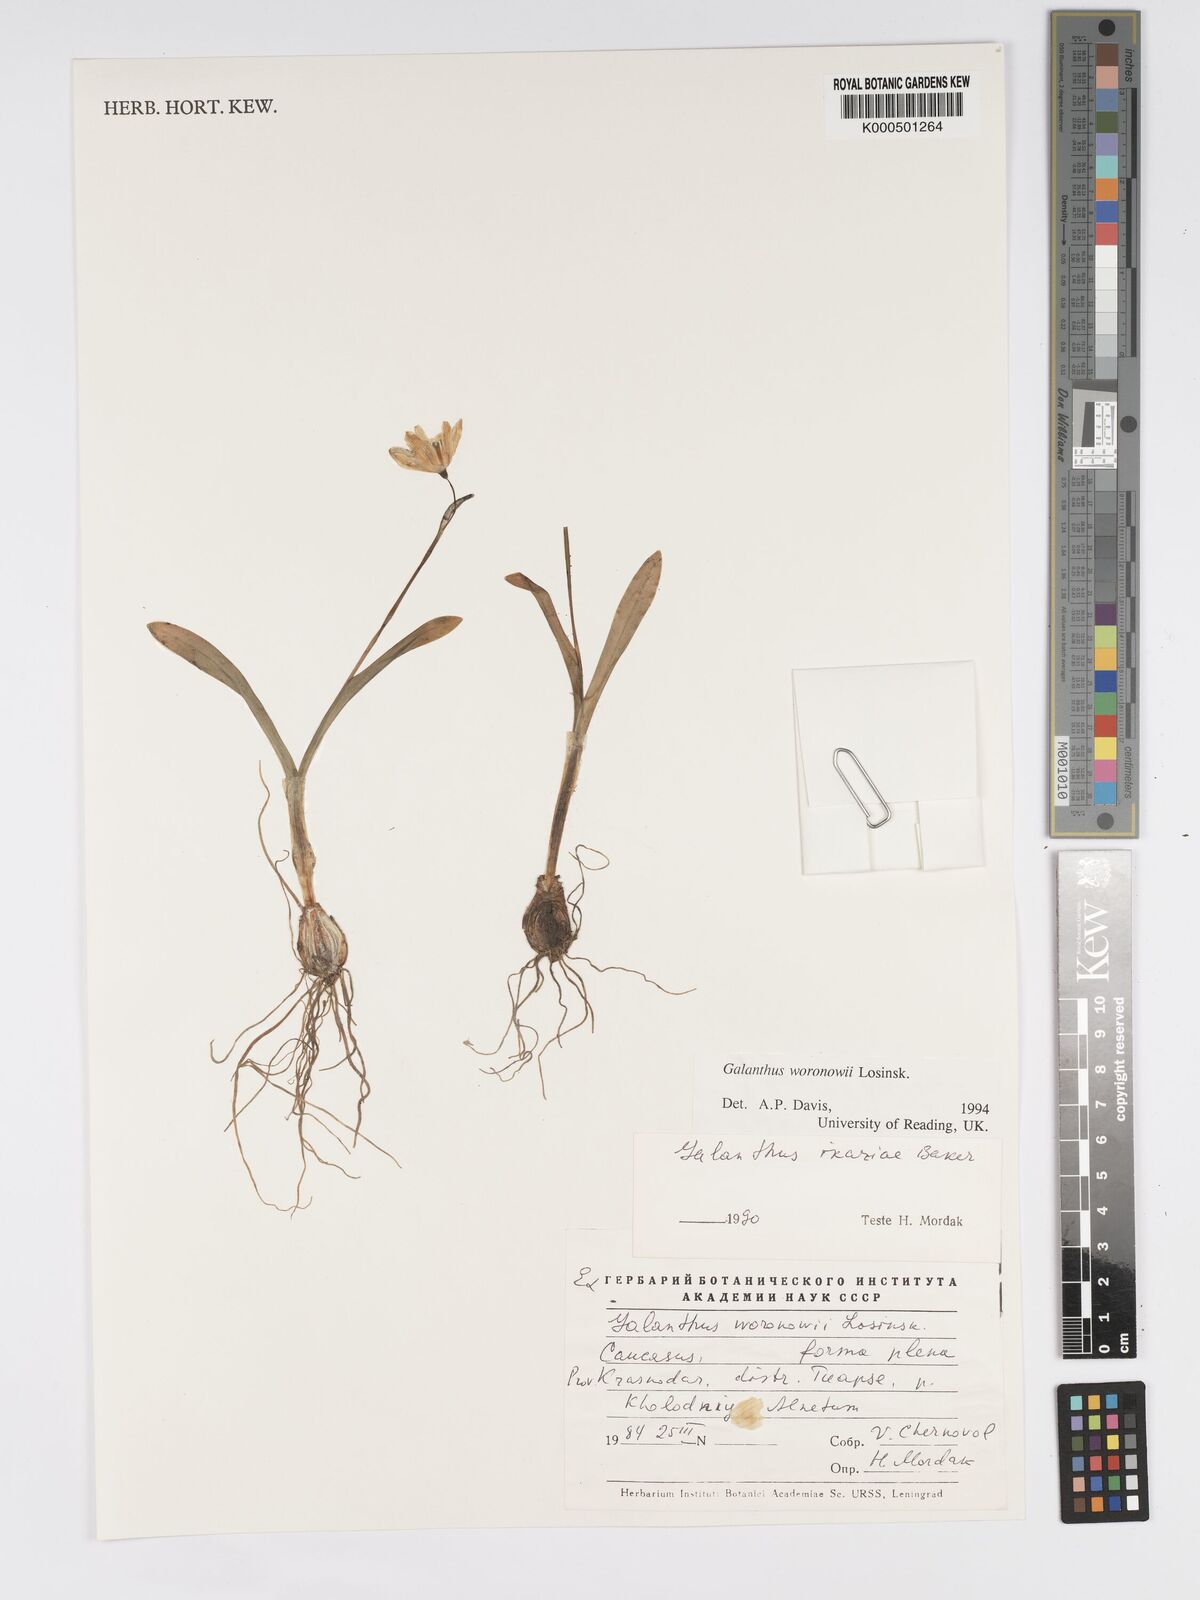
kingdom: Plantae
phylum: Tracheophyta
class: Liliopsida
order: Asparagales
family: Amaryllidaceae
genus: Galanthus
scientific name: Galanthus woronowii
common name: Green snowdrop
